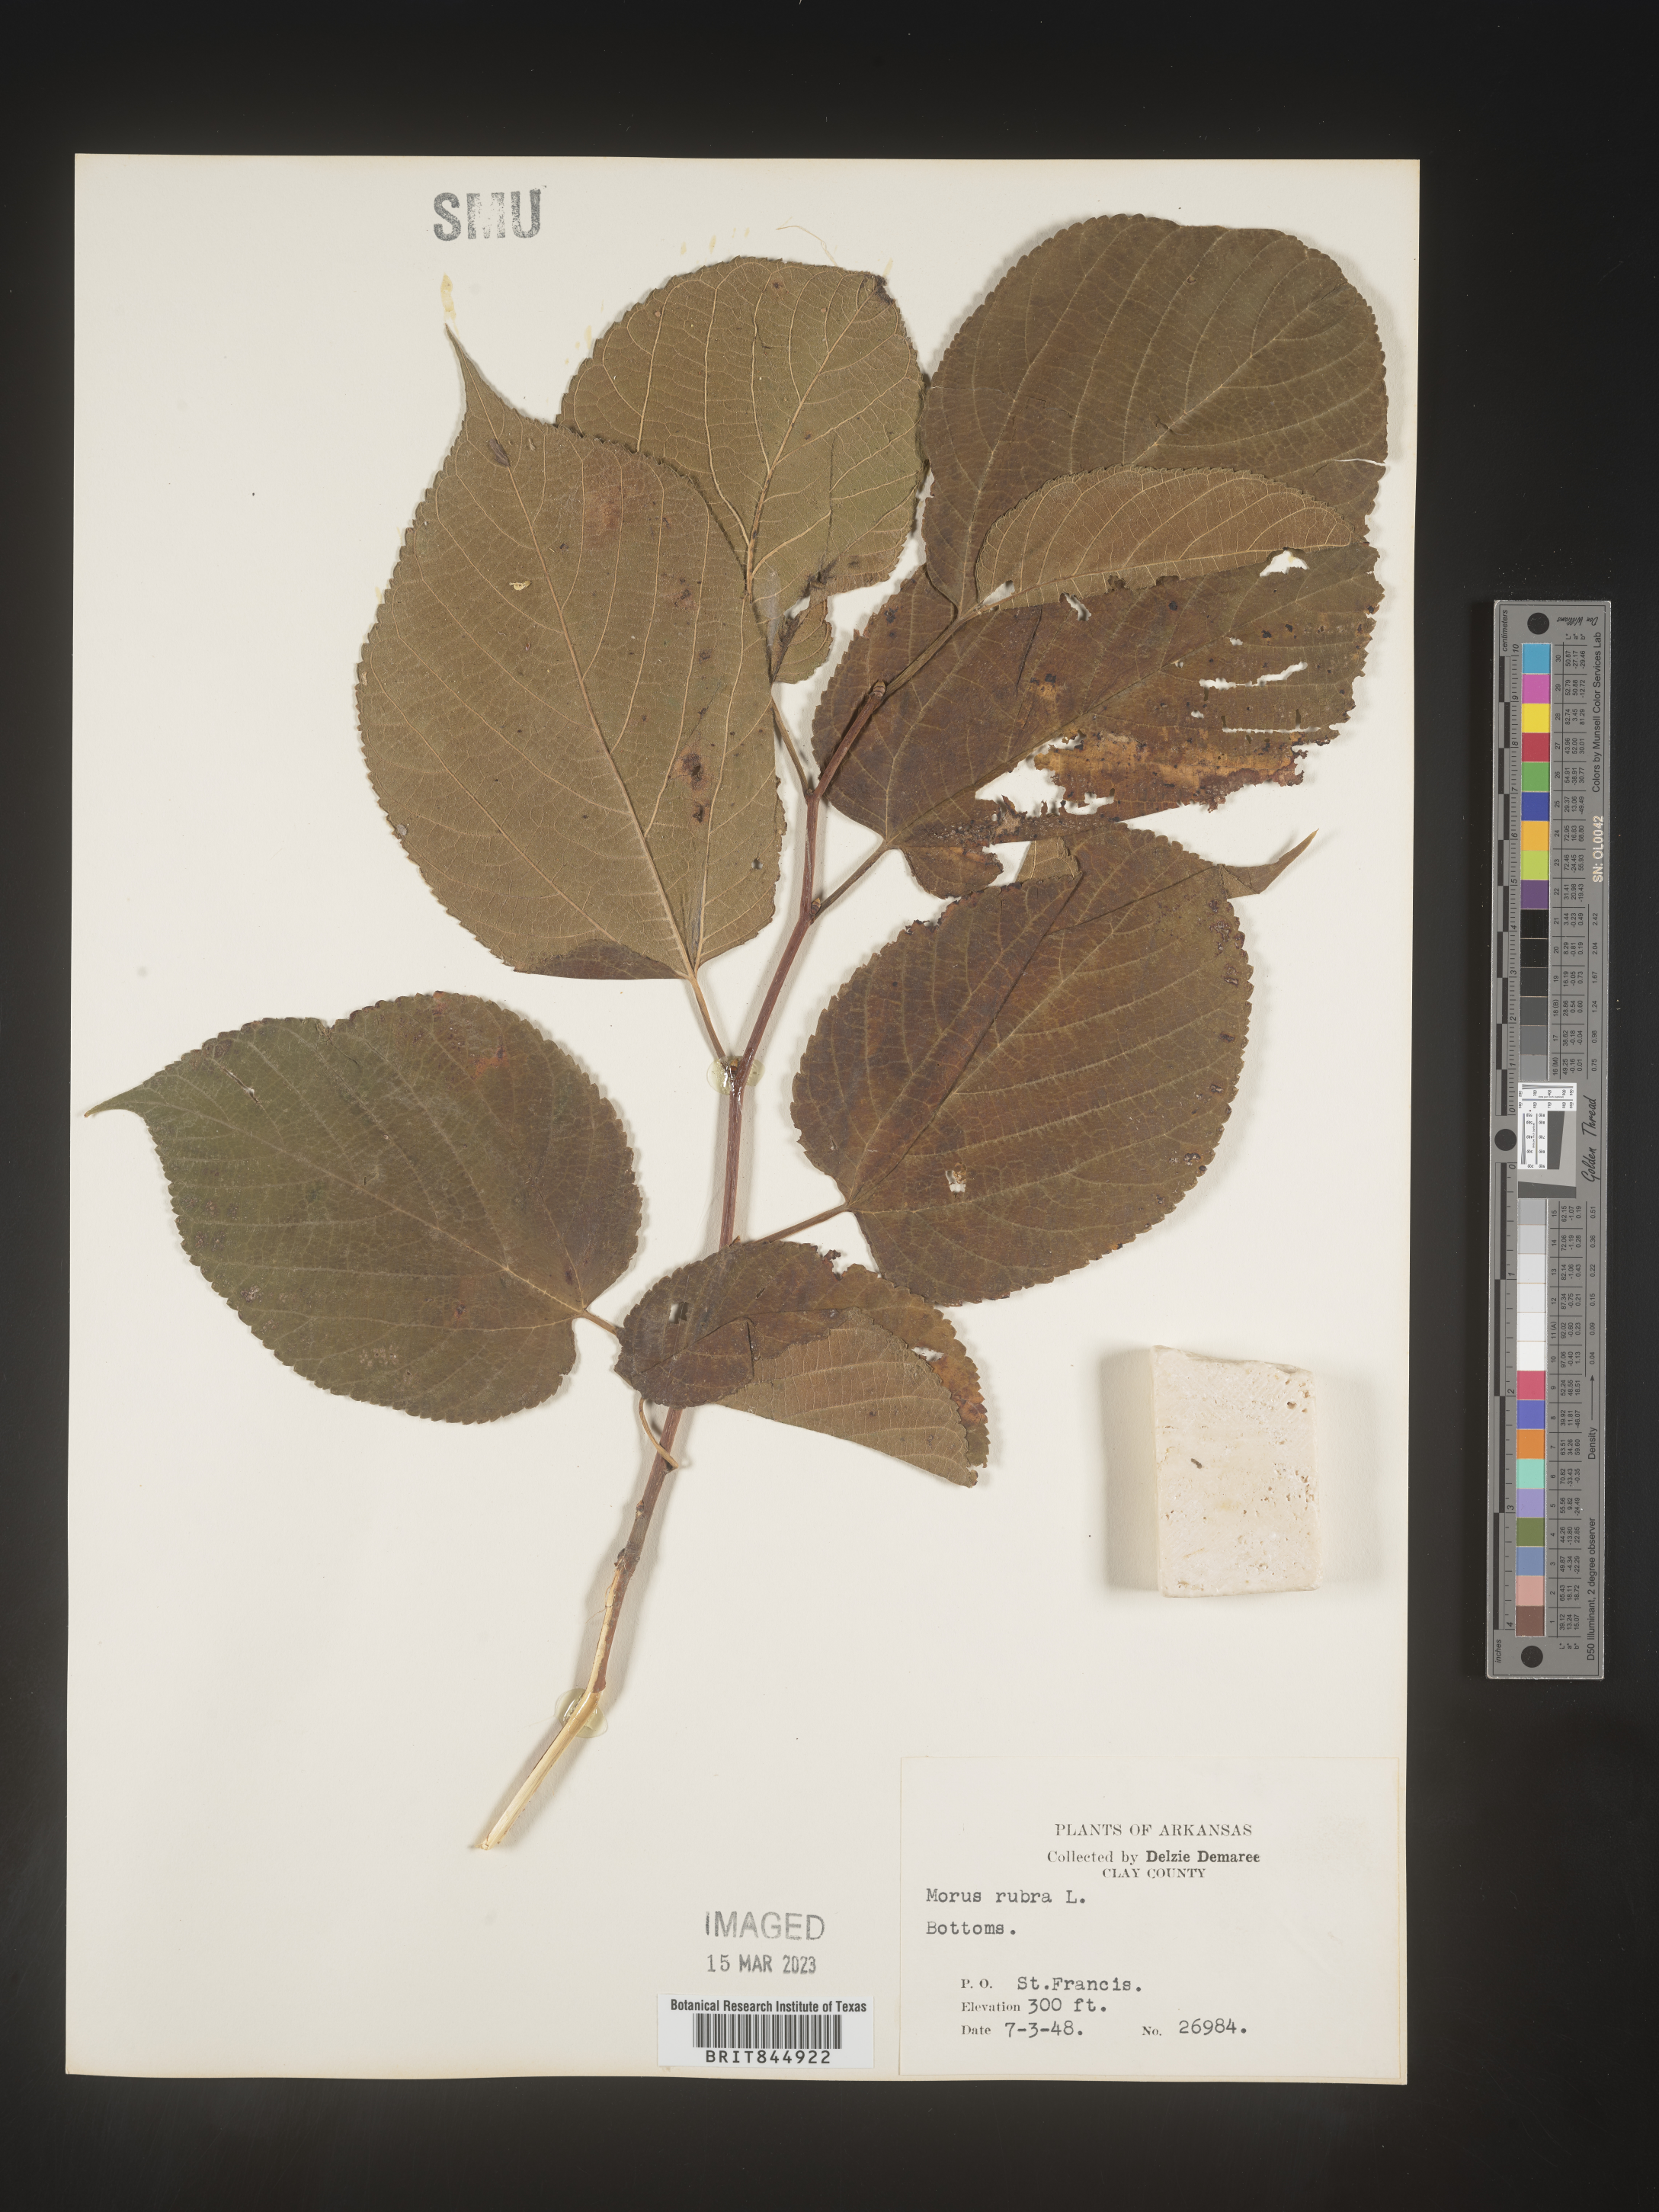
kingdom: Plantae
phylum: Tracheophyta
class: Magnoliopsida
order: Rosales
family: Moraceae
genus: Morus
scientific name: Morus rubra
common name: Red mulberry
